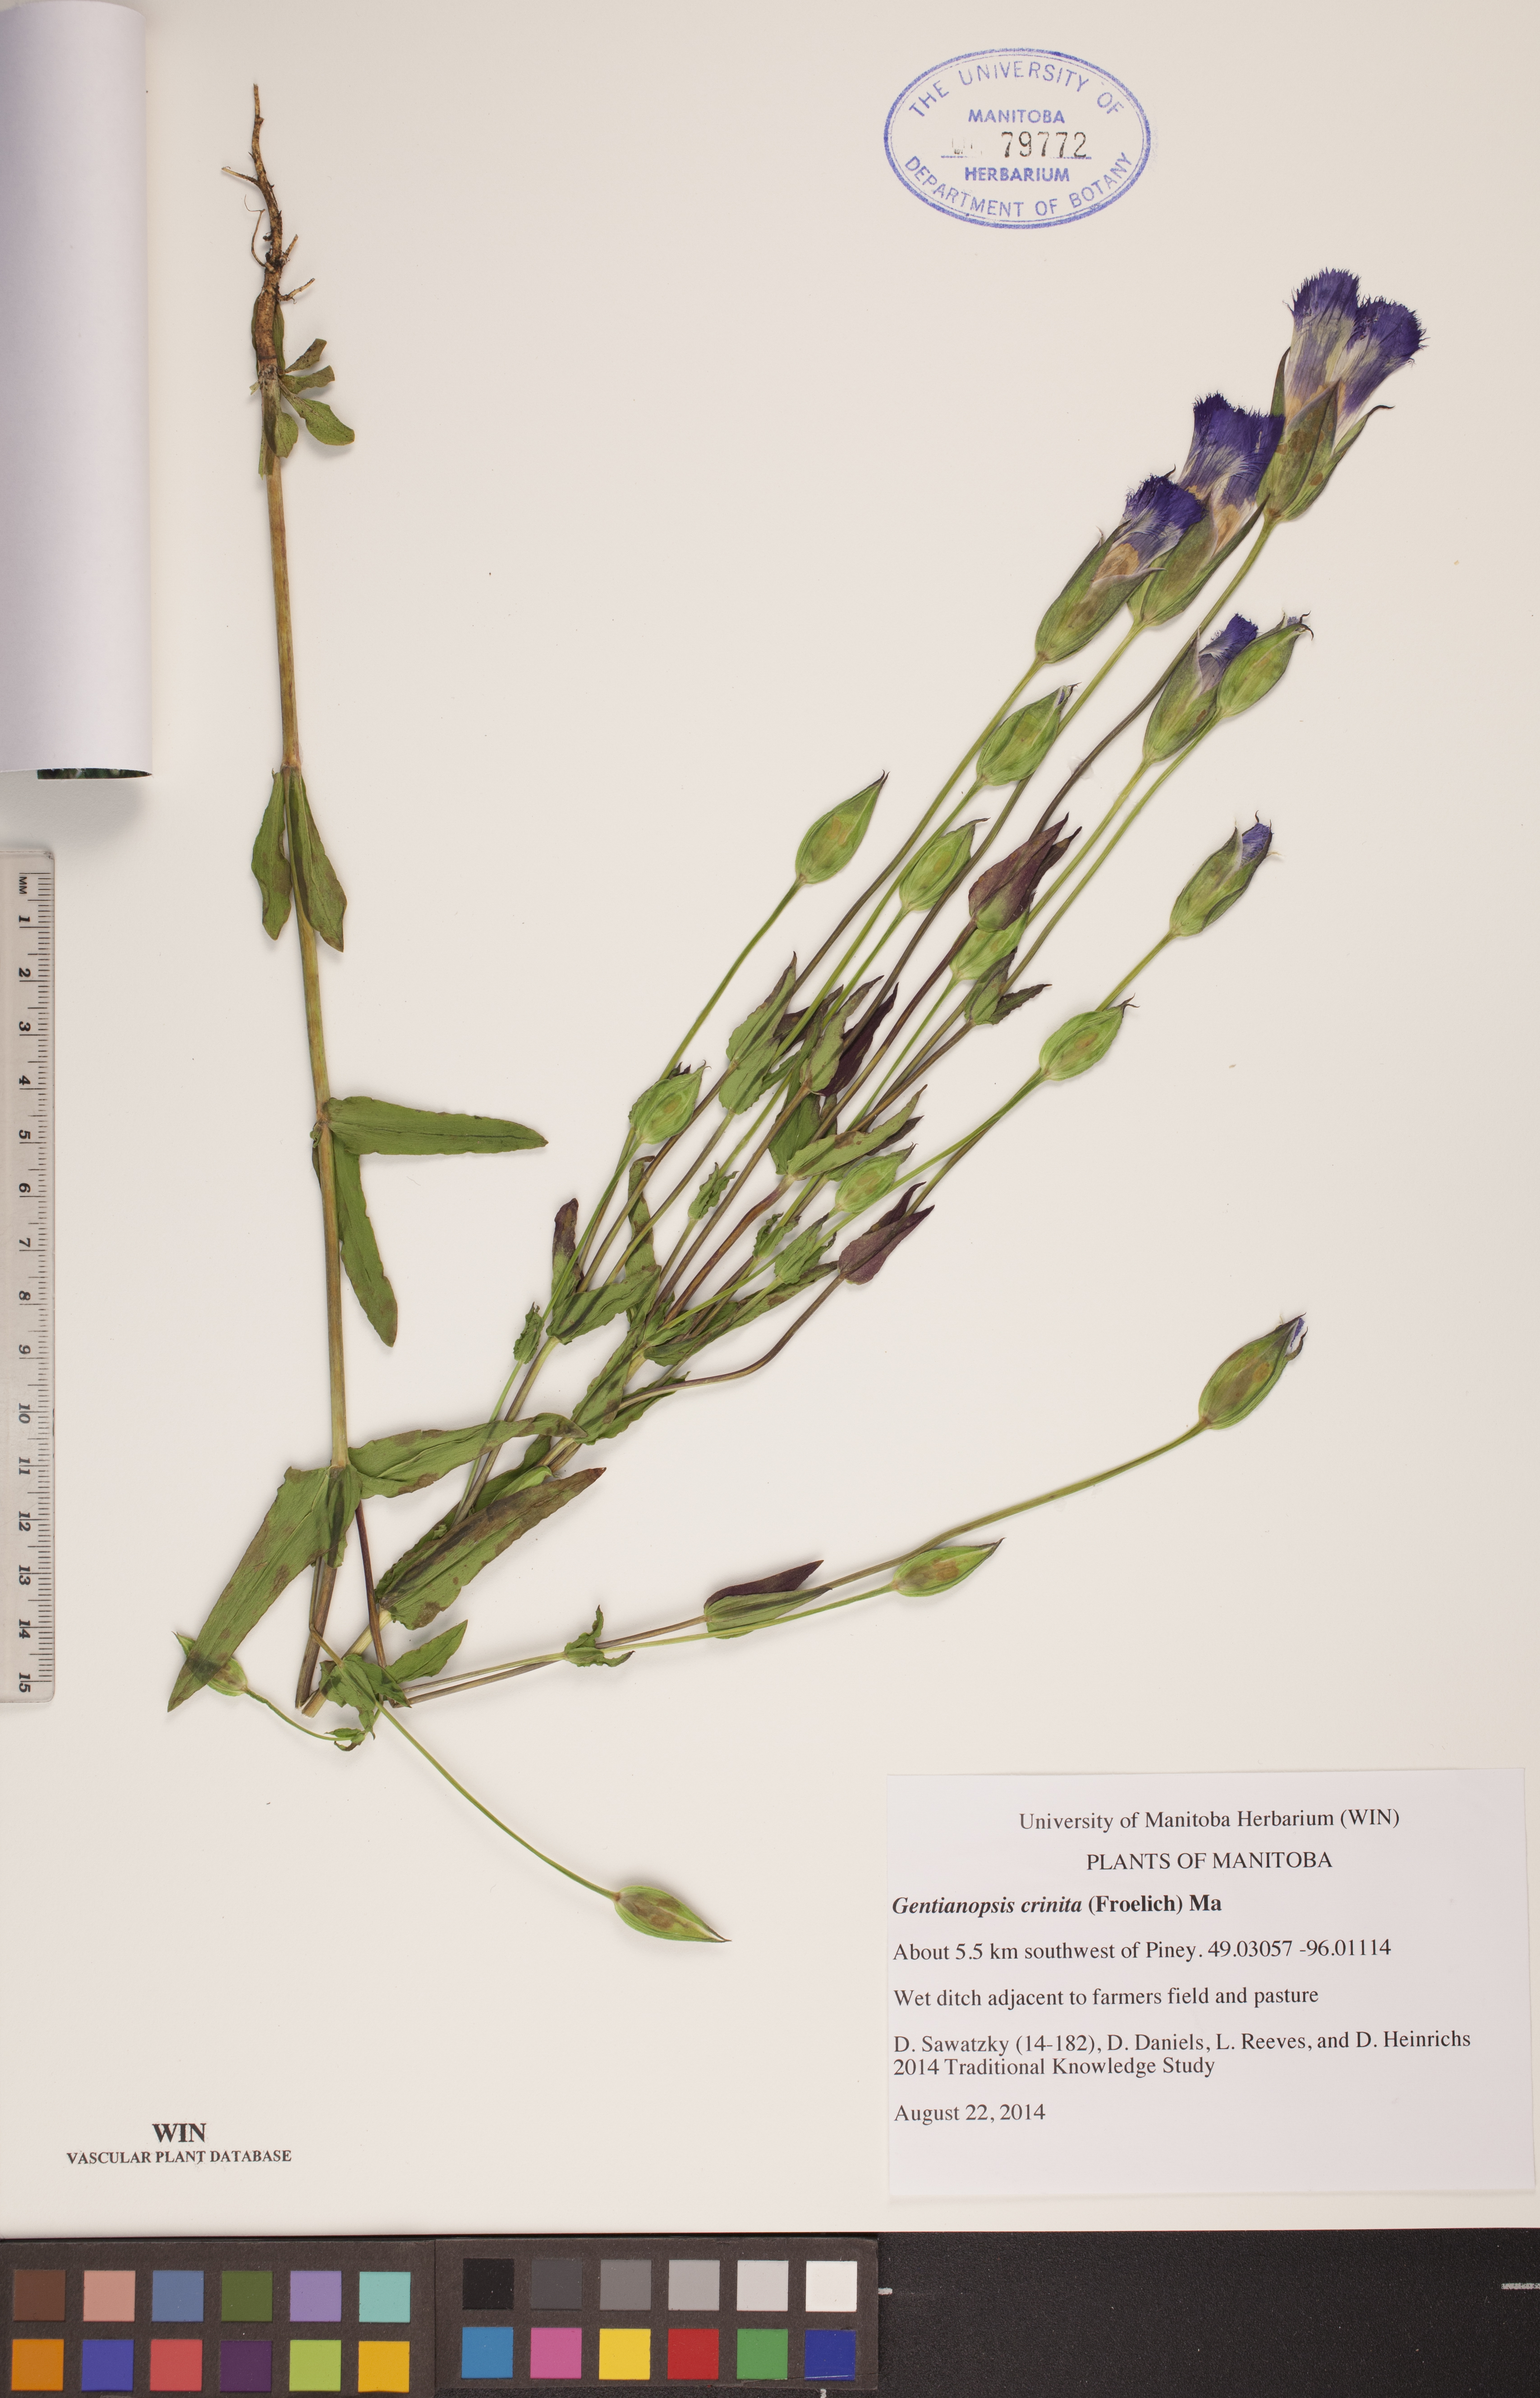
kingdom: Plantae
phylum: Tracheophyta
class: Magnoliopsida
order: Gentianales
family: Gentianaceae
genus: Gentianopsis
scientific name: Gentianopsis crinita
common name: Fringed-gentian
